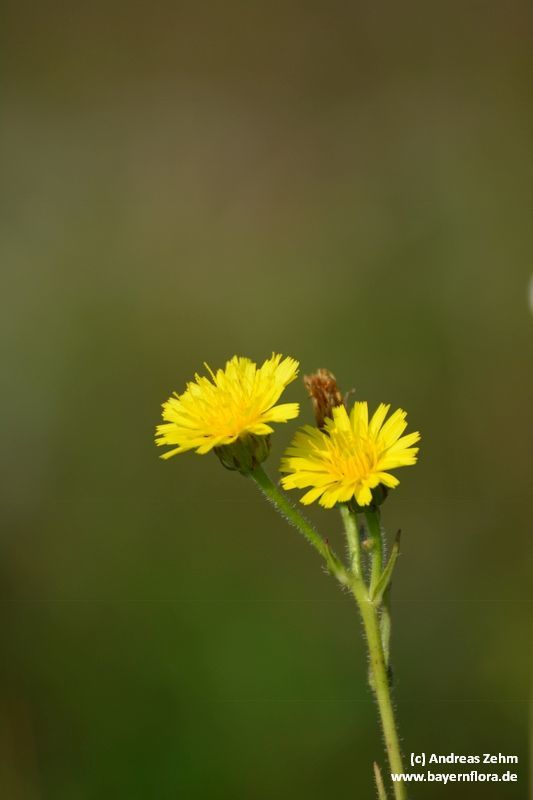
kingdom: Plantae
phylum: Tracheophyta
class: Magnoliopsida
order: Asterales
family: Asteraceae
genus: Picris
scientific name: Picris hieracioides
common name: Hawkweed oxtongue
